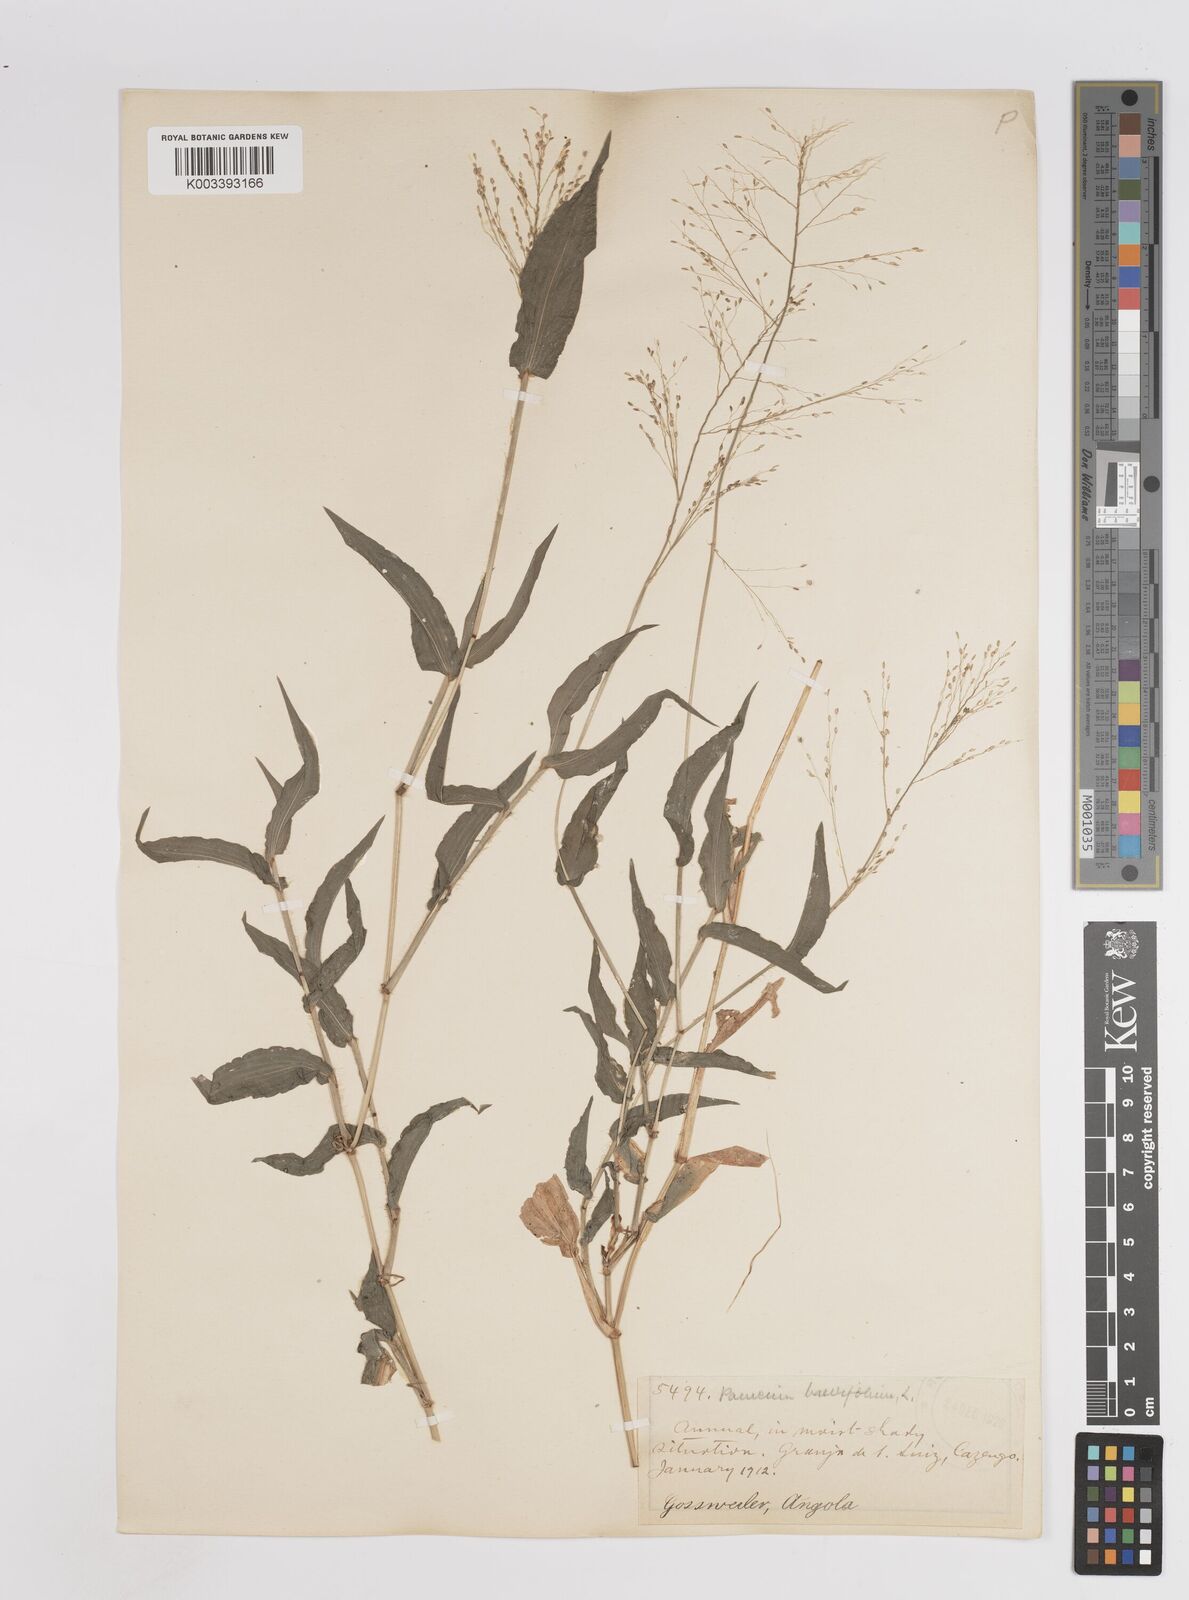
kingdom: Plantae
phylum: Tracheophyta
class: Liliopsida
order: Poales
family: Poaceae
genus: Panicum
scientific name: Panicum brevifolium
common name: Shortleaf panic grass
